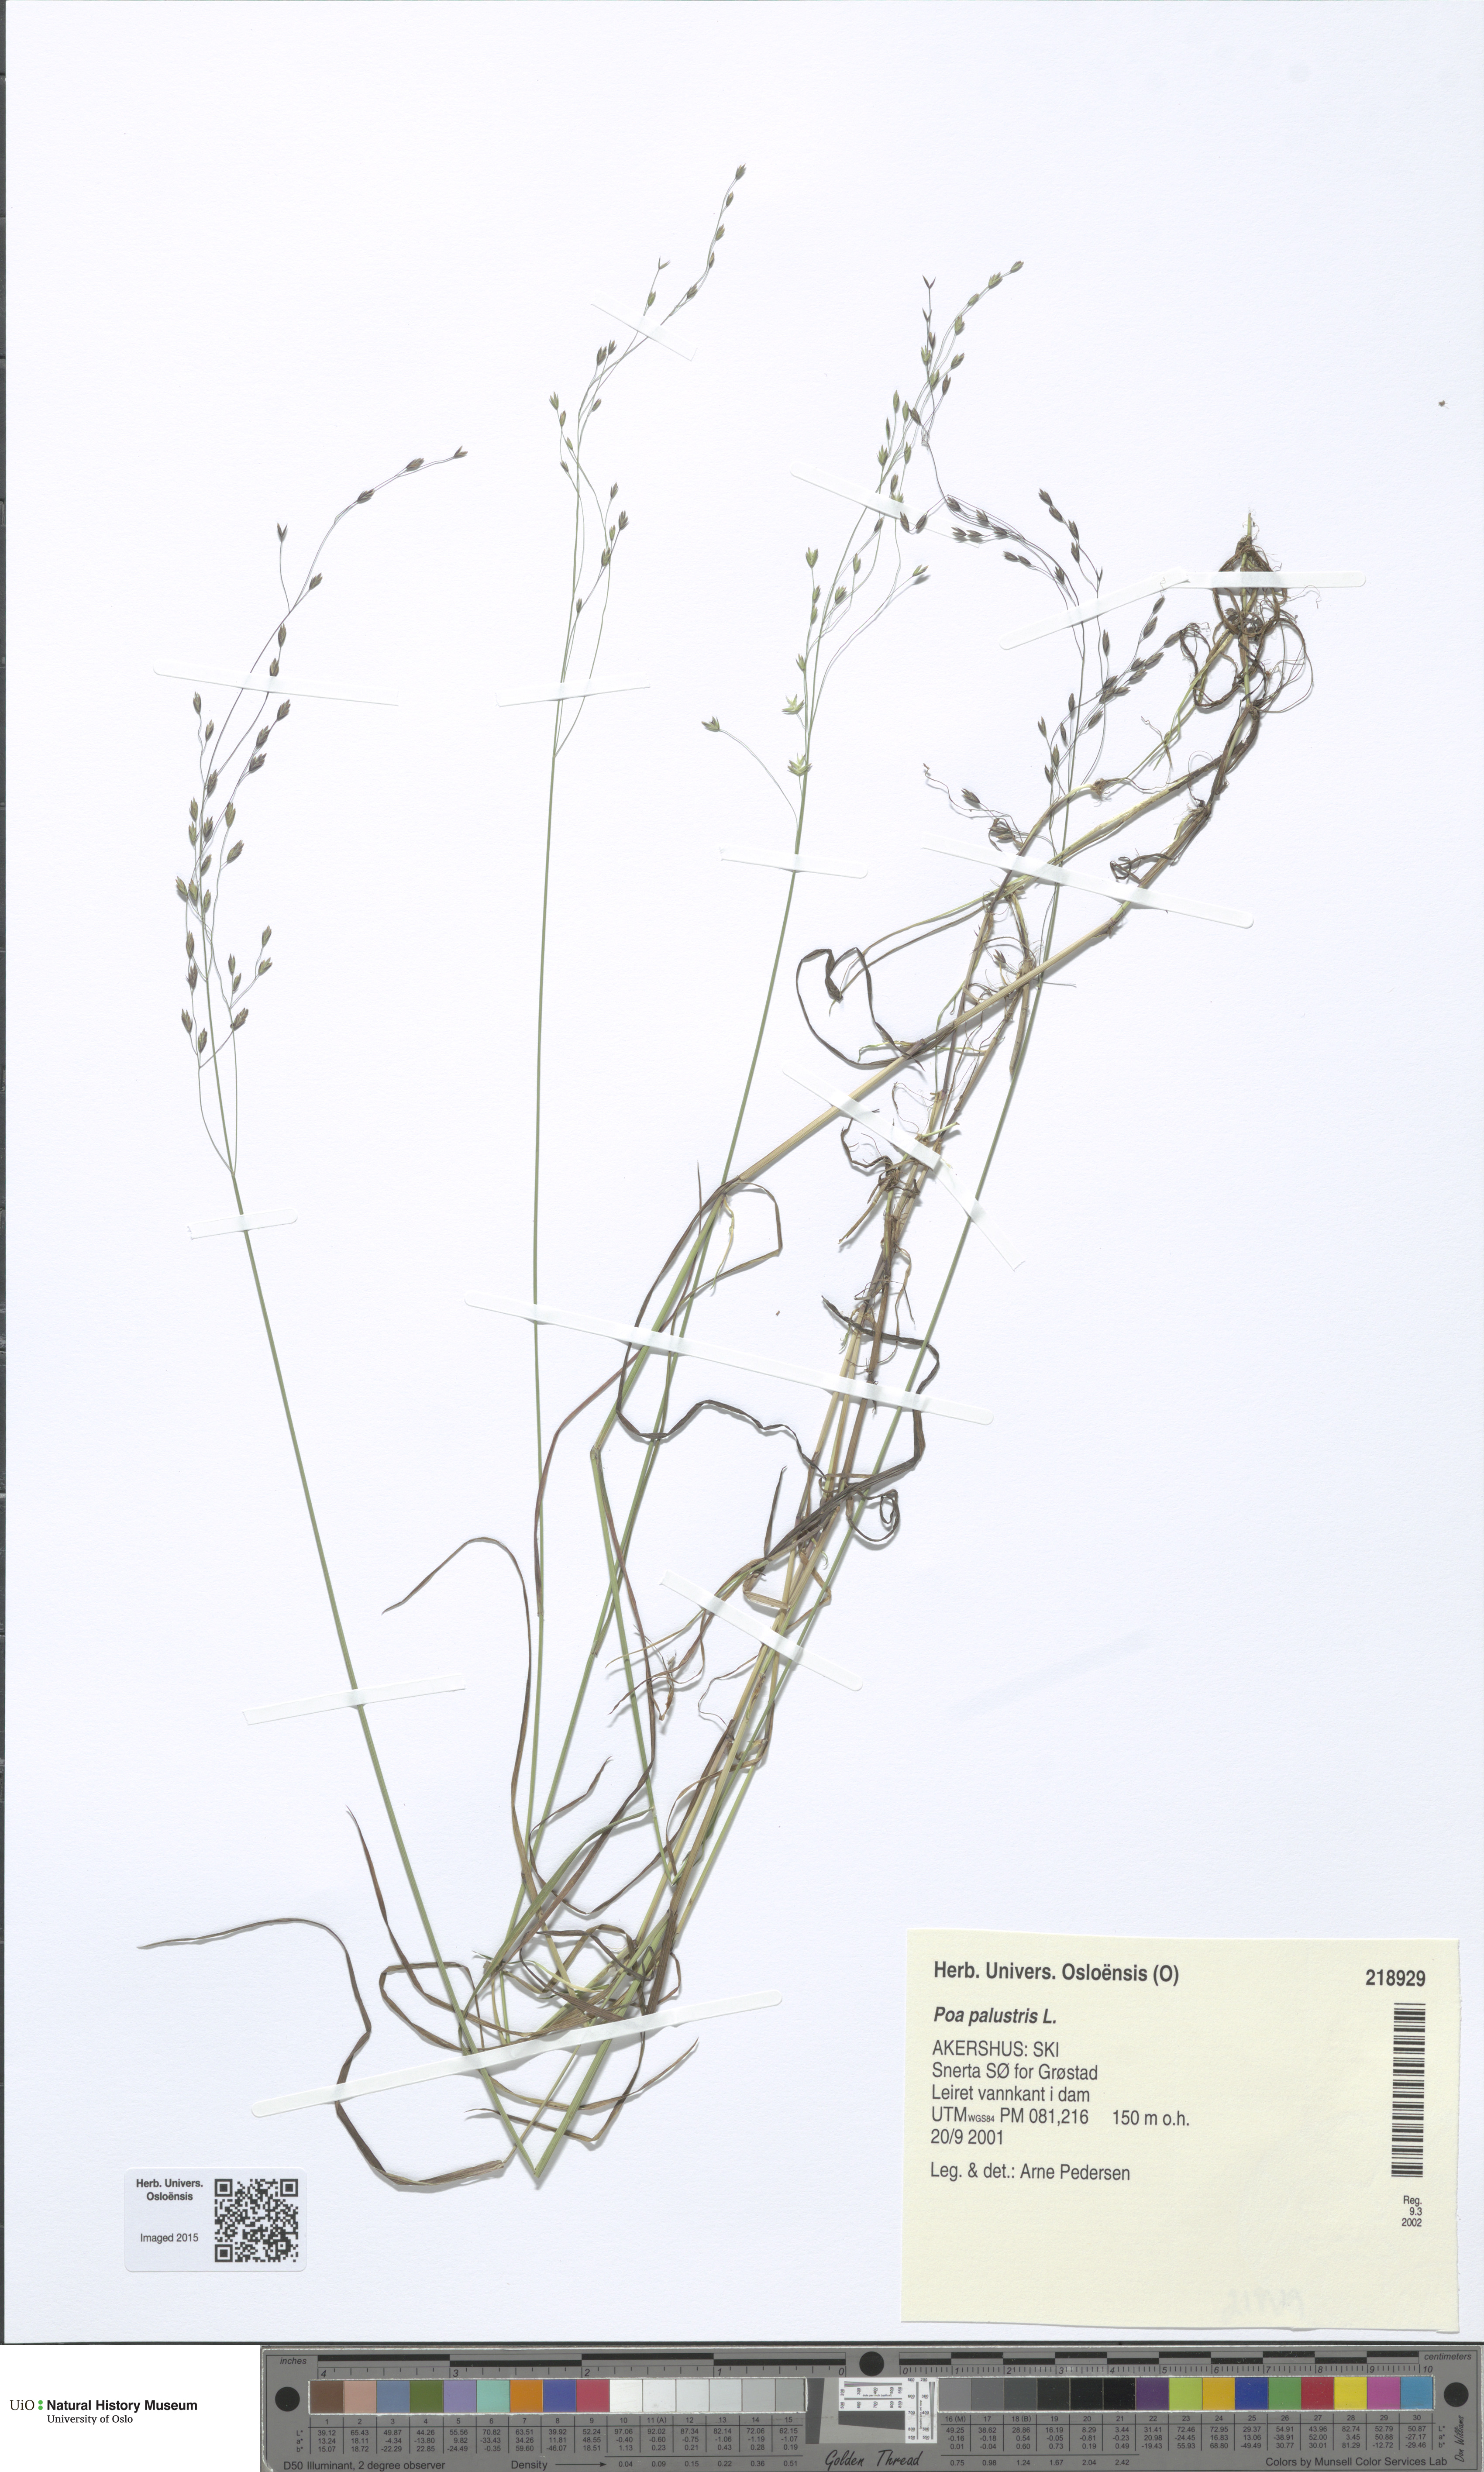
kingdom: Plantae
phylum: Tracheophyta
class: Liliopsida
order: Poales
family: Poaceae
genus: Poa
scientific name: Poa palustris
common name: Swamp meadow-grass
